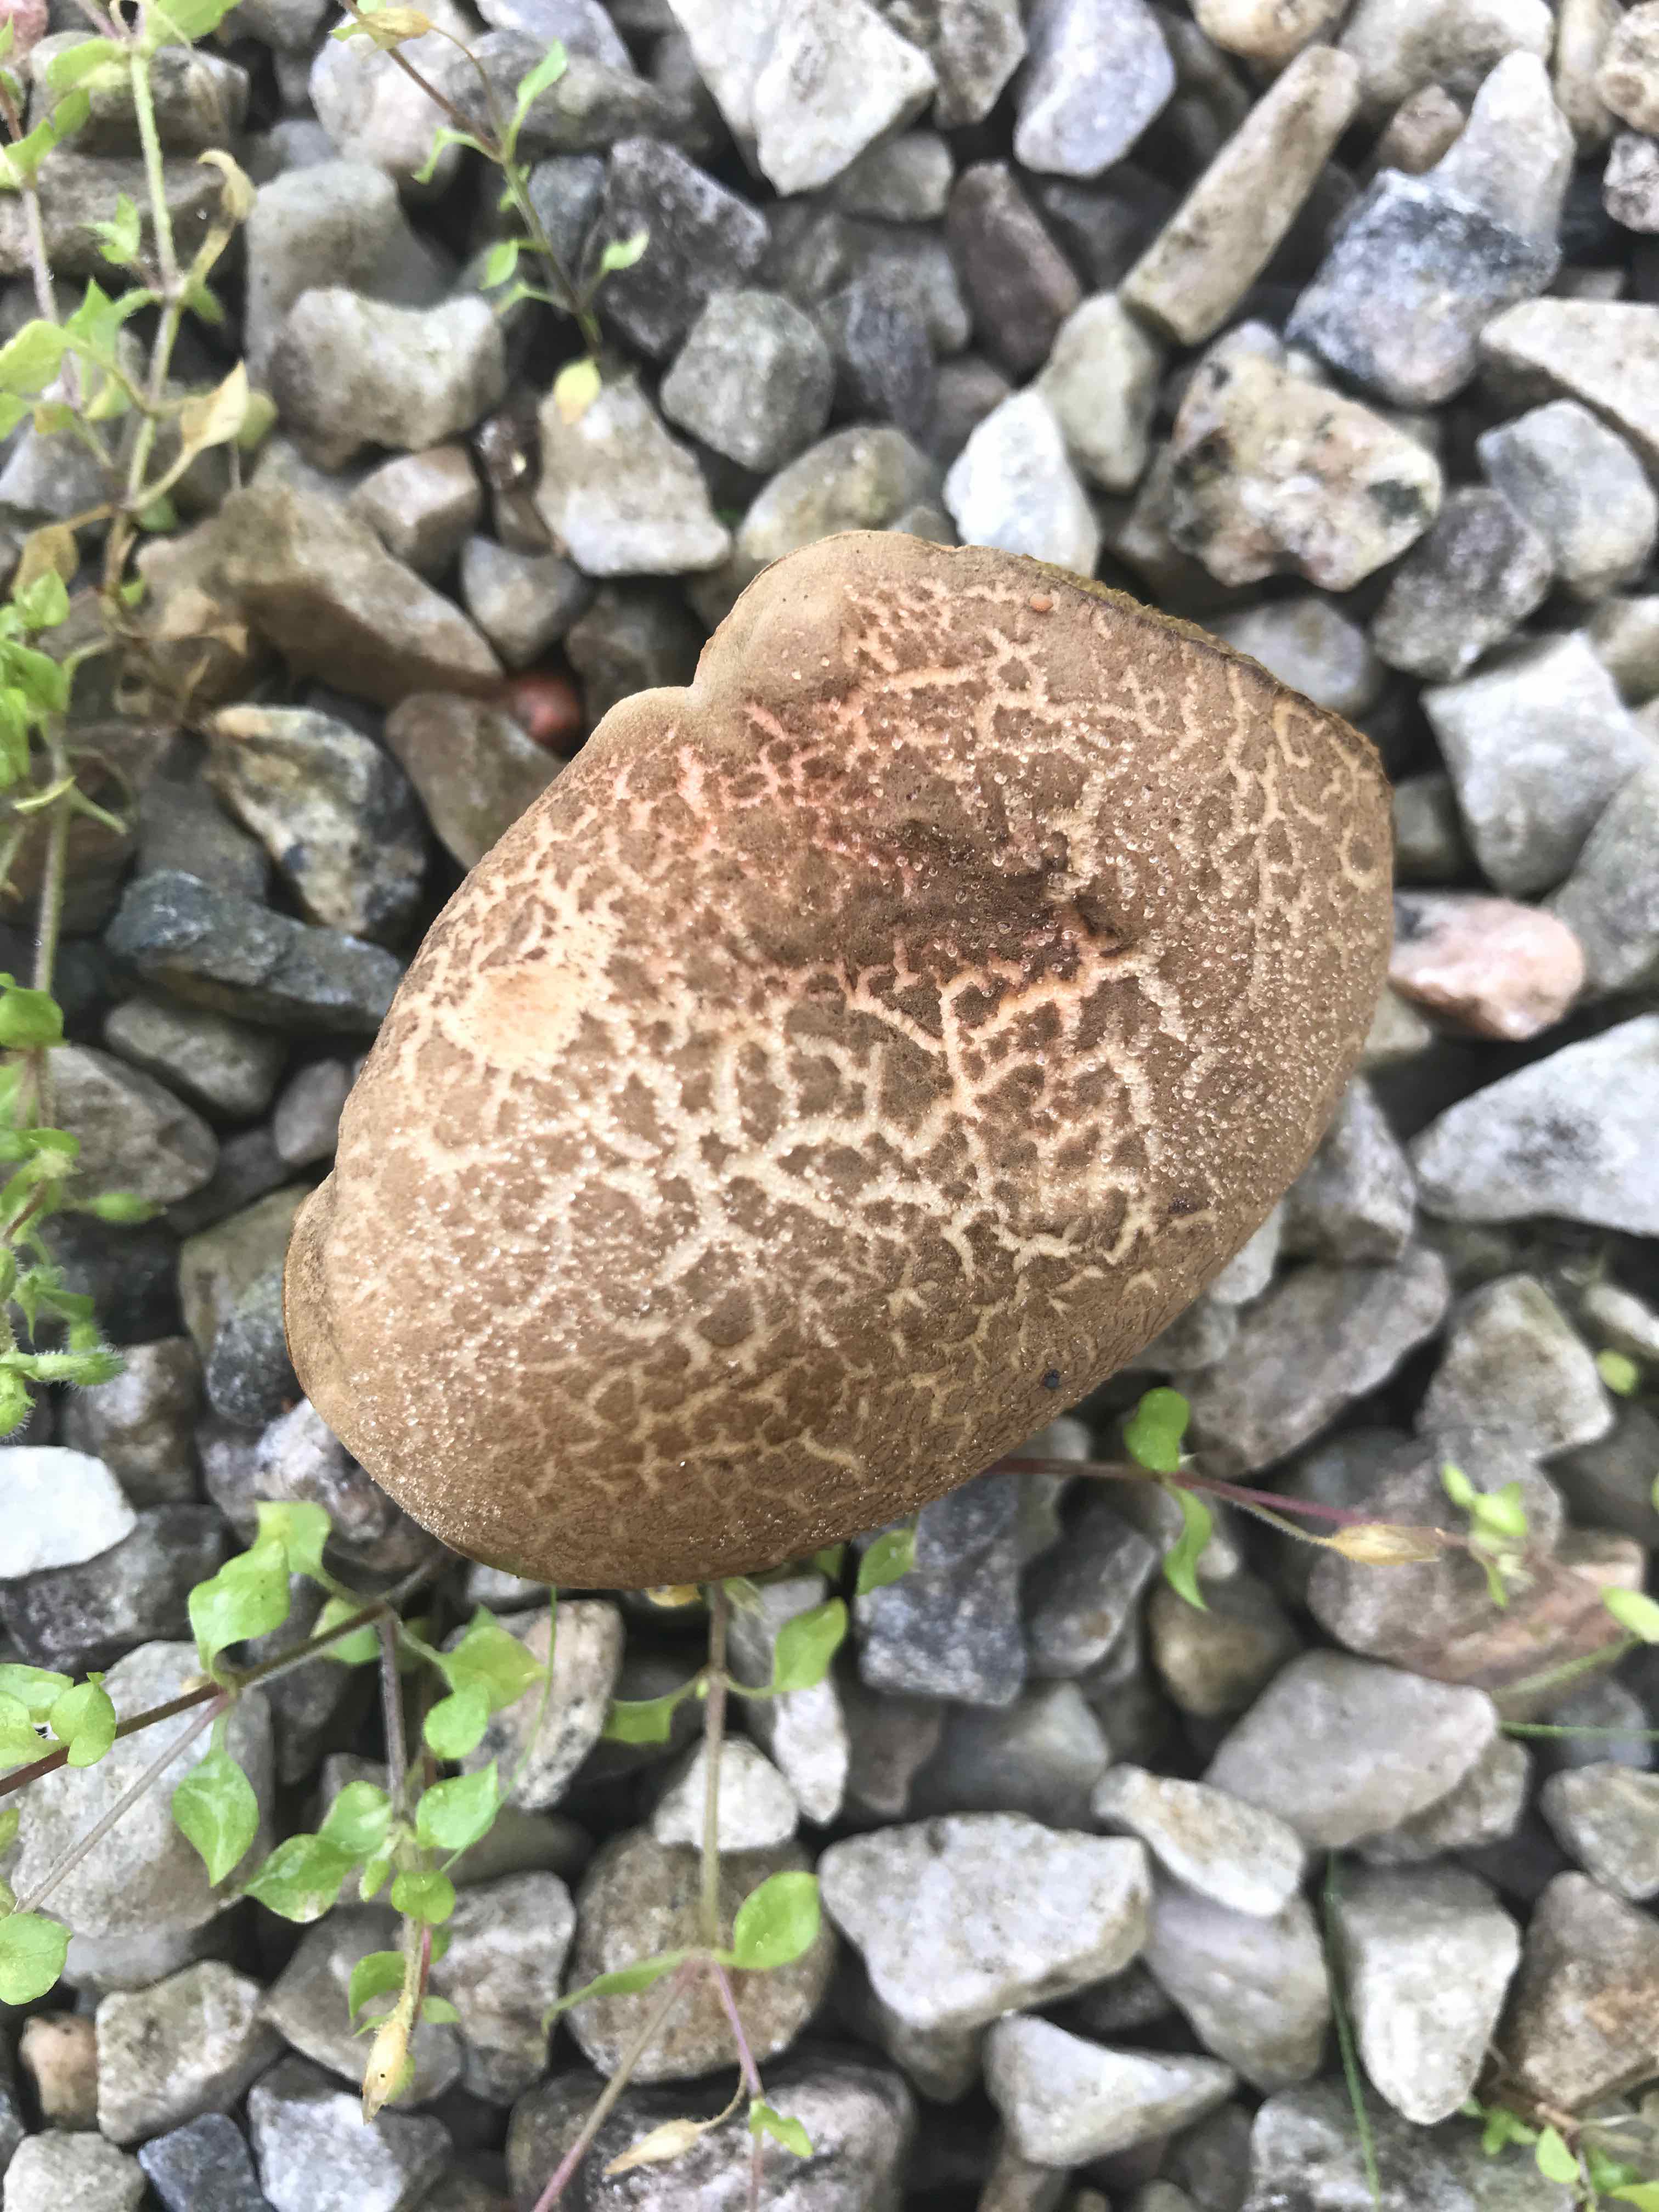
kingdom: Fungi
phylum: Basidiomycota
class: Agaricomycetes
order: Boletales
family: Boletaceae
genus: Xerocomellus
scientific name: Xerocomellus
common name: dværgrørhat
